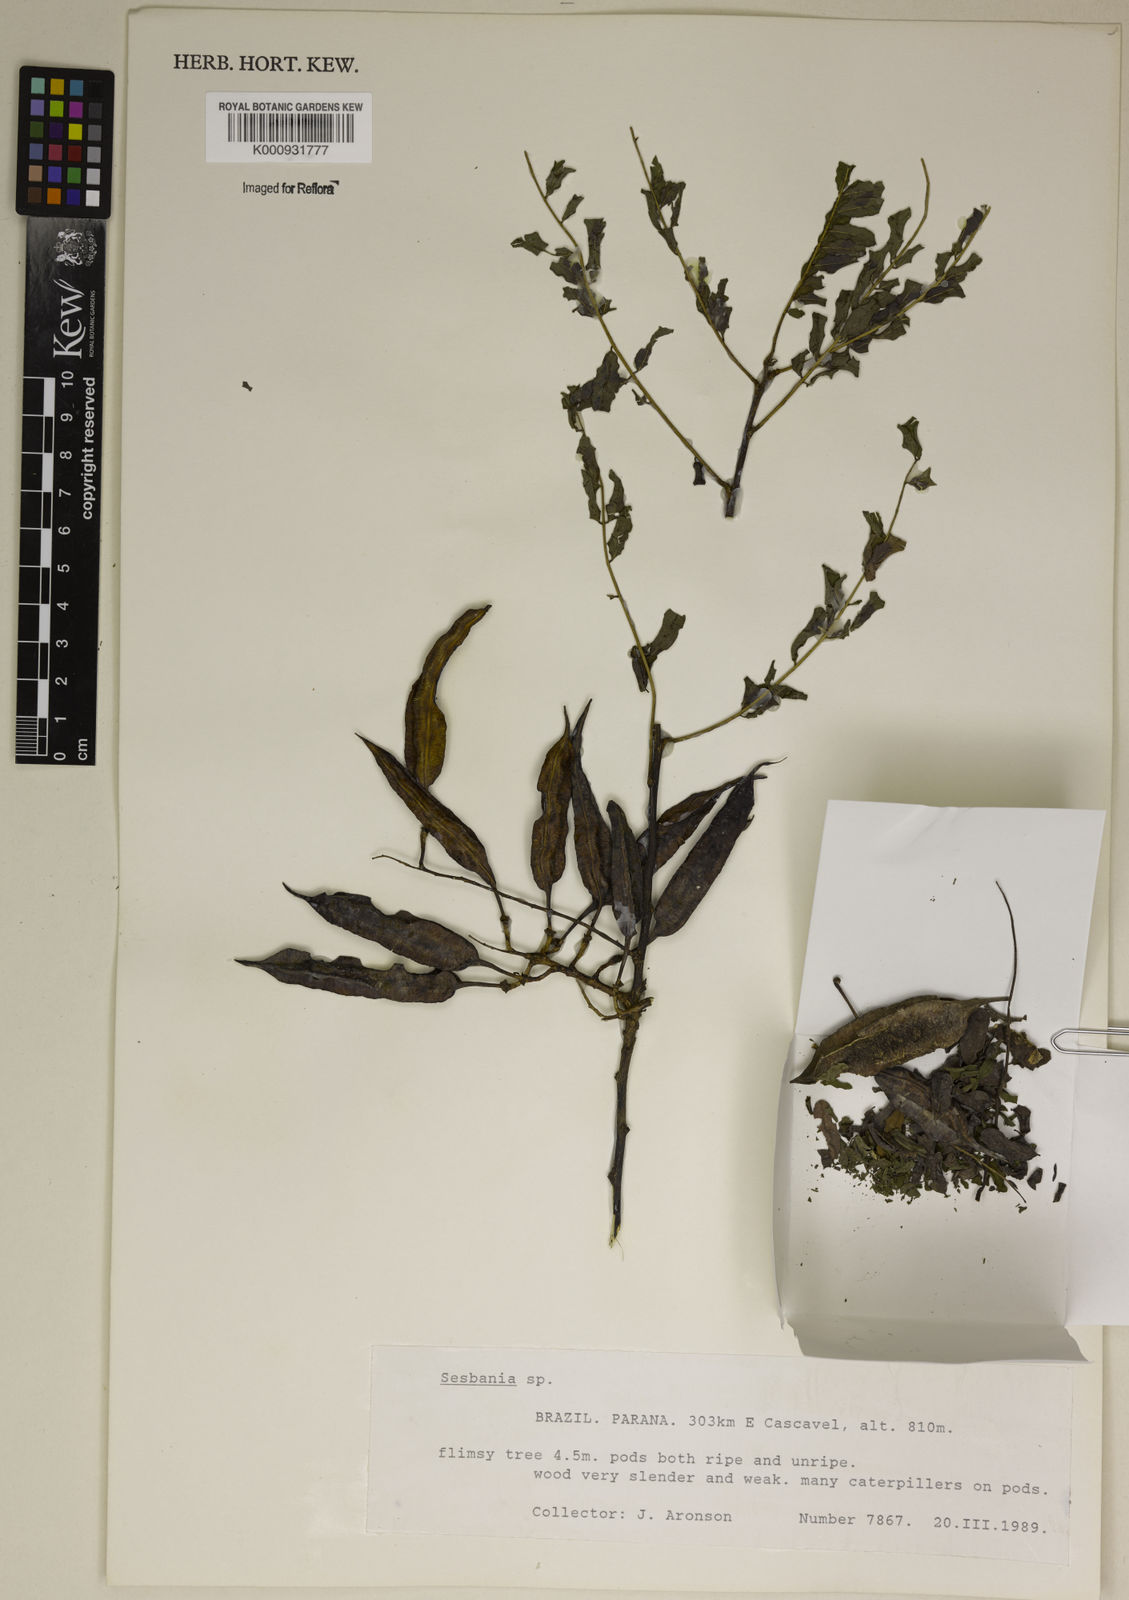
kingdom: Plantae
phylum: Tracheophyta
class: Magnoliopsida
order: Fabales
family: Fabaceae
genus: Sesbania
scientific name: Sesbania
